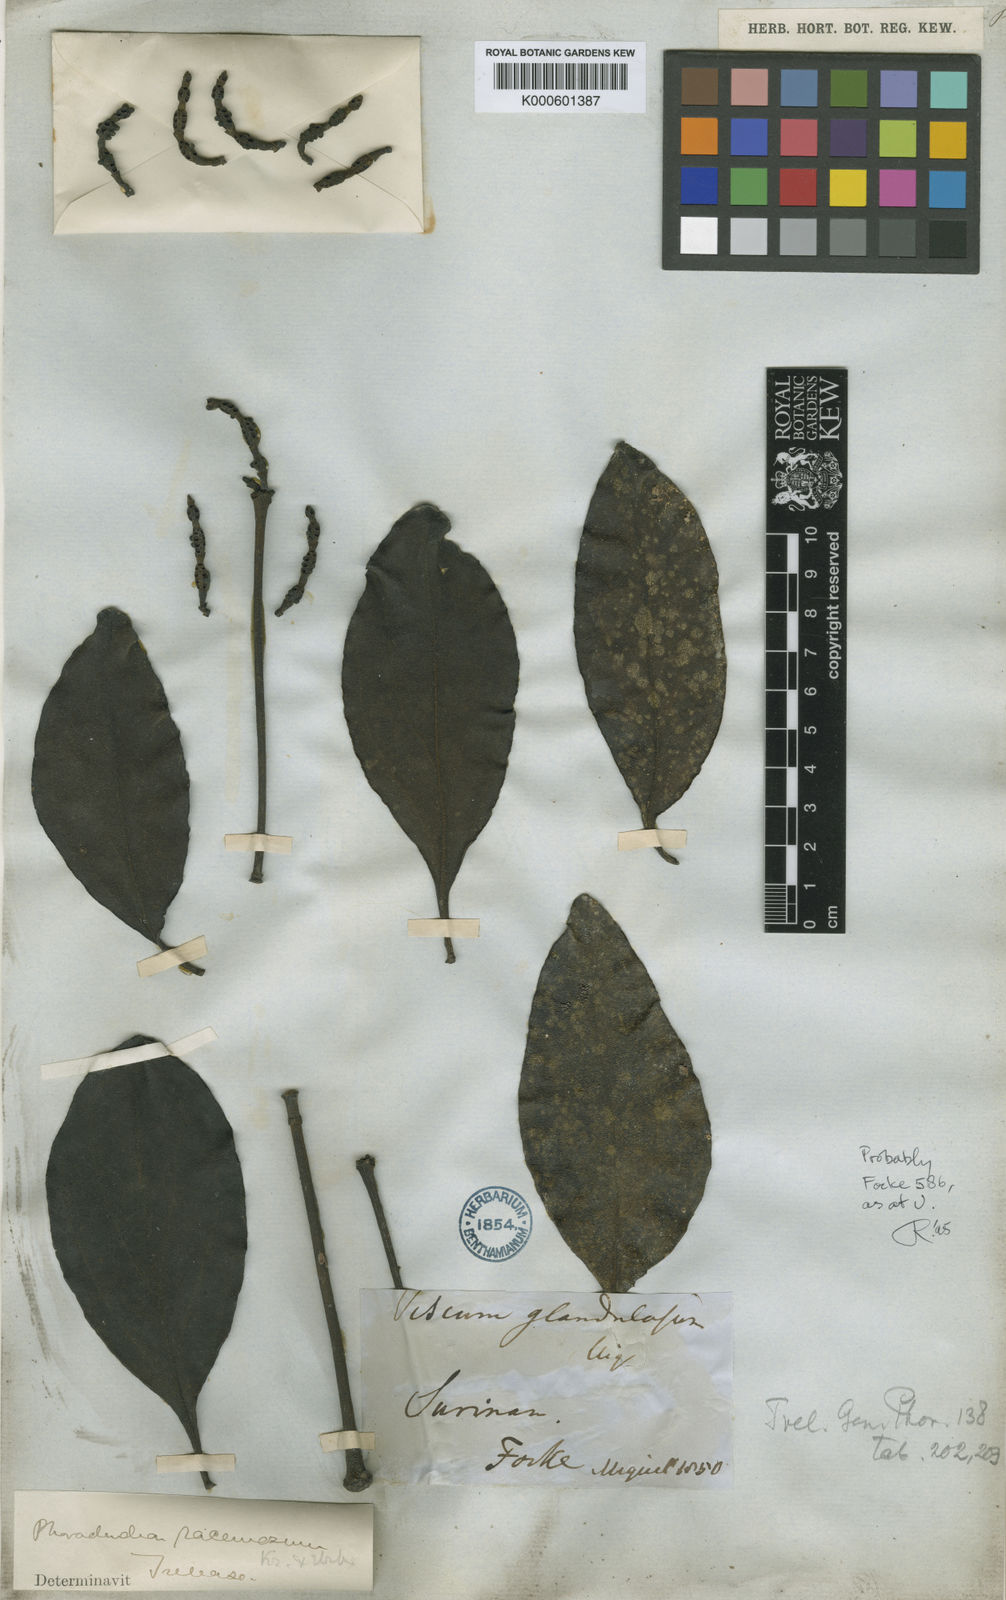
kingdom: Plantae
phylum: Tracheophyta
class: Magnoliopsida
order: Santalales
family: Viscaceae
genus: Phoradendron
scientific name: Phoradendron racemosum
